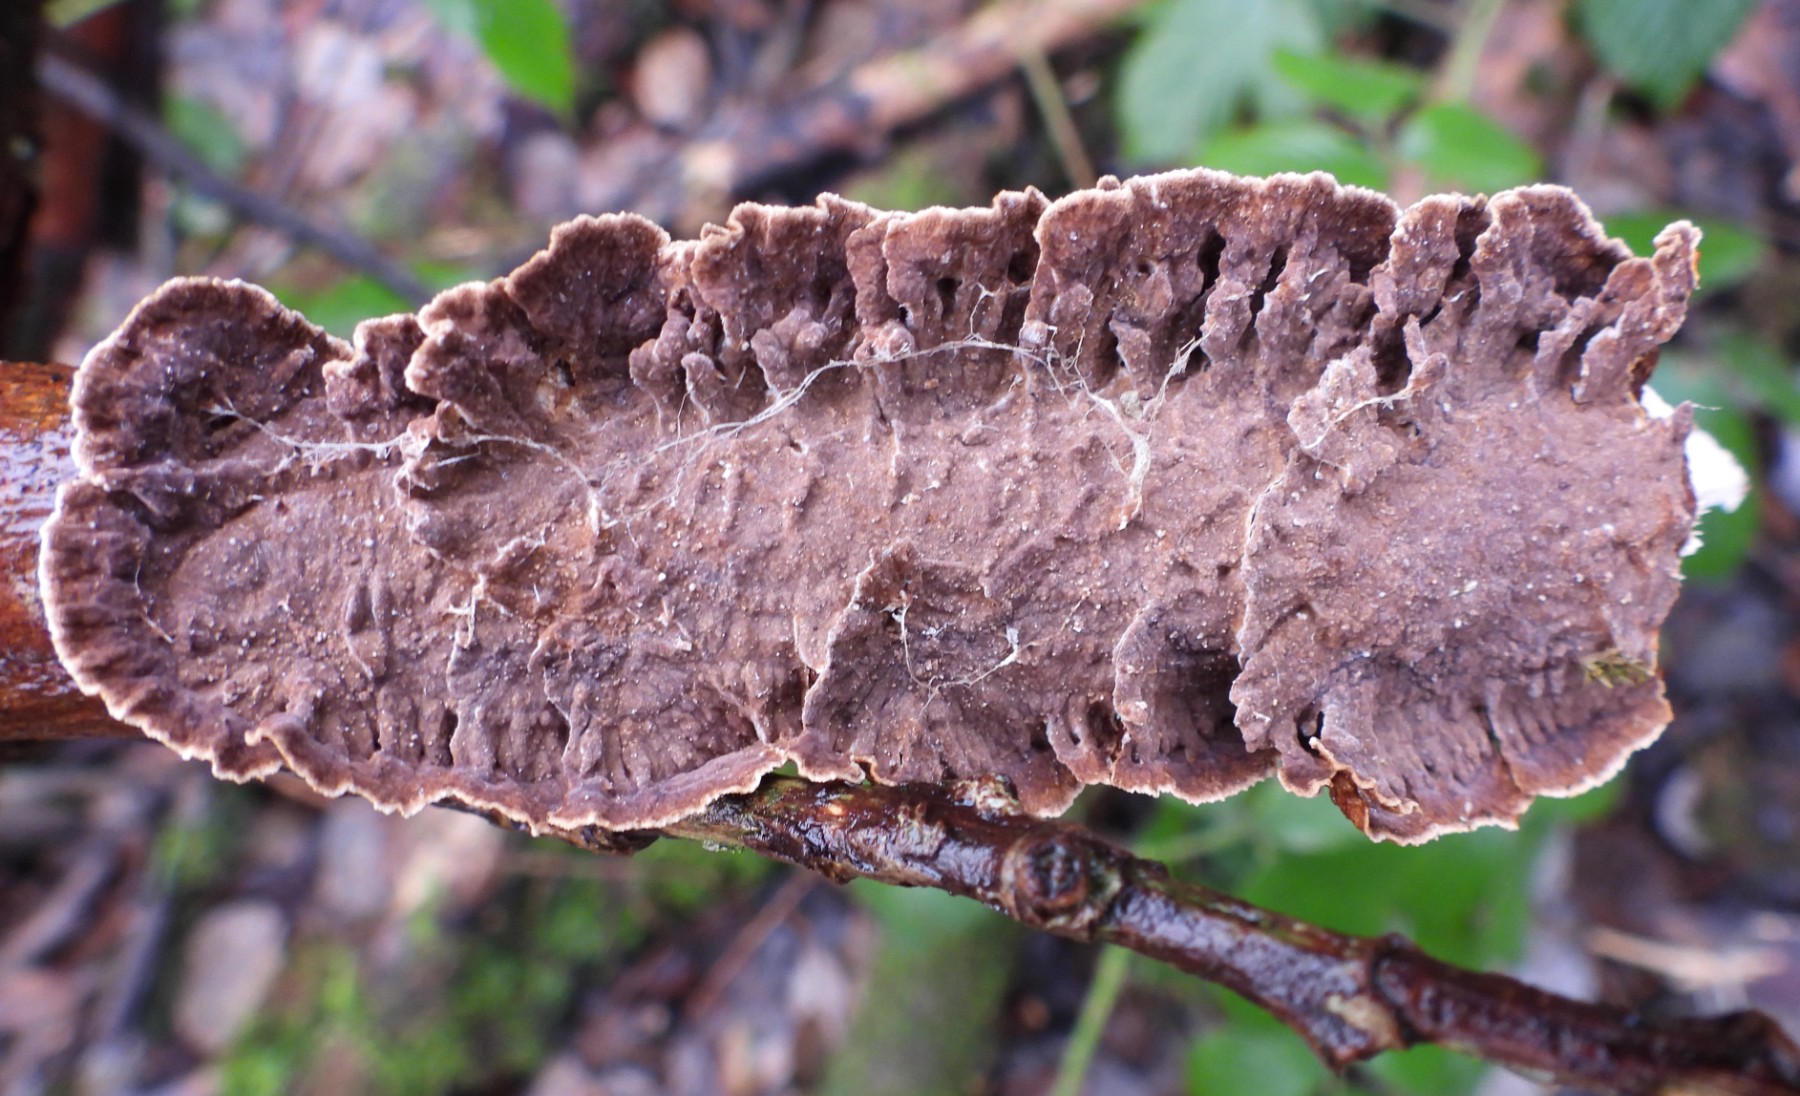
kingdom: Fungi
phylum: Basidiomycota
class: Agaricomycetes
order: Hymenochaetales
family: Hymenochaetaceae
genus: Hydnoporia
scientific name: Hydnoporia tabacina
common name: tobaksbrun ruslædersvamp
